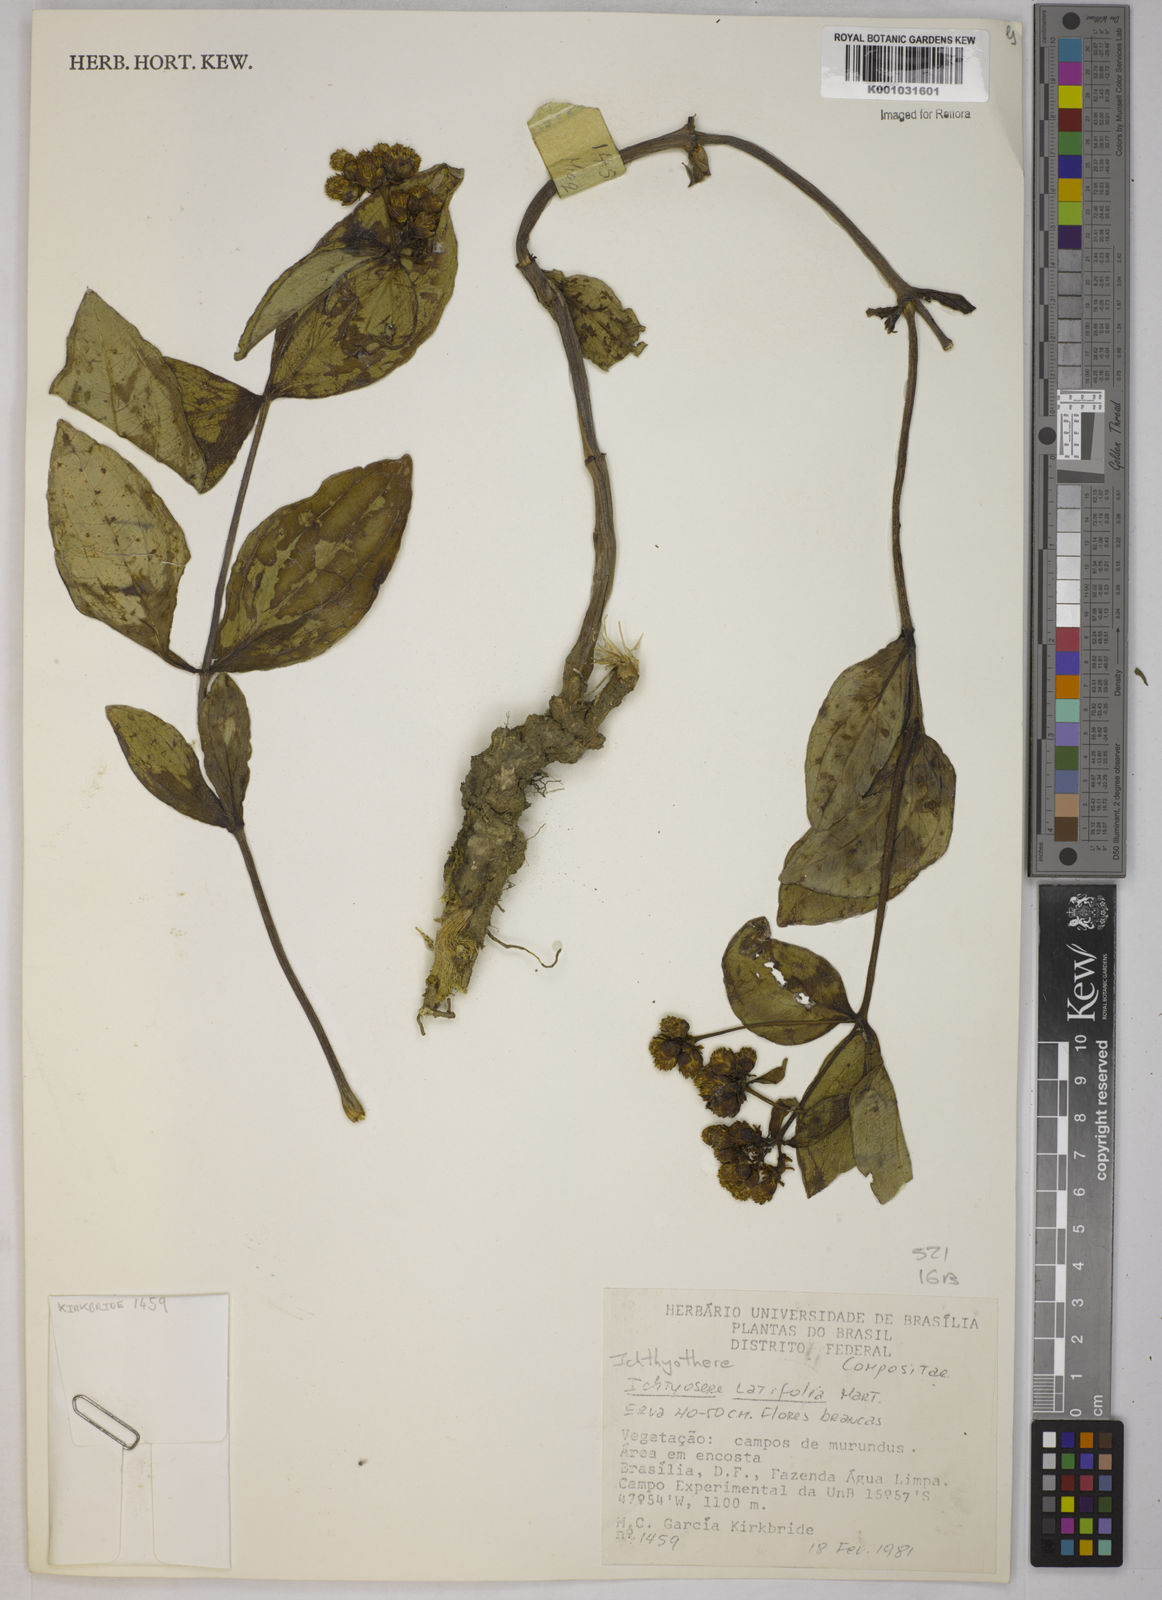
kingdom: Plantae
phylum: Tracheophyta
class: Magnoliopsida
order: Asterales
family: Asteraceae
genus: Ichthyothere
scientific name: Ichthyothere latifolia
